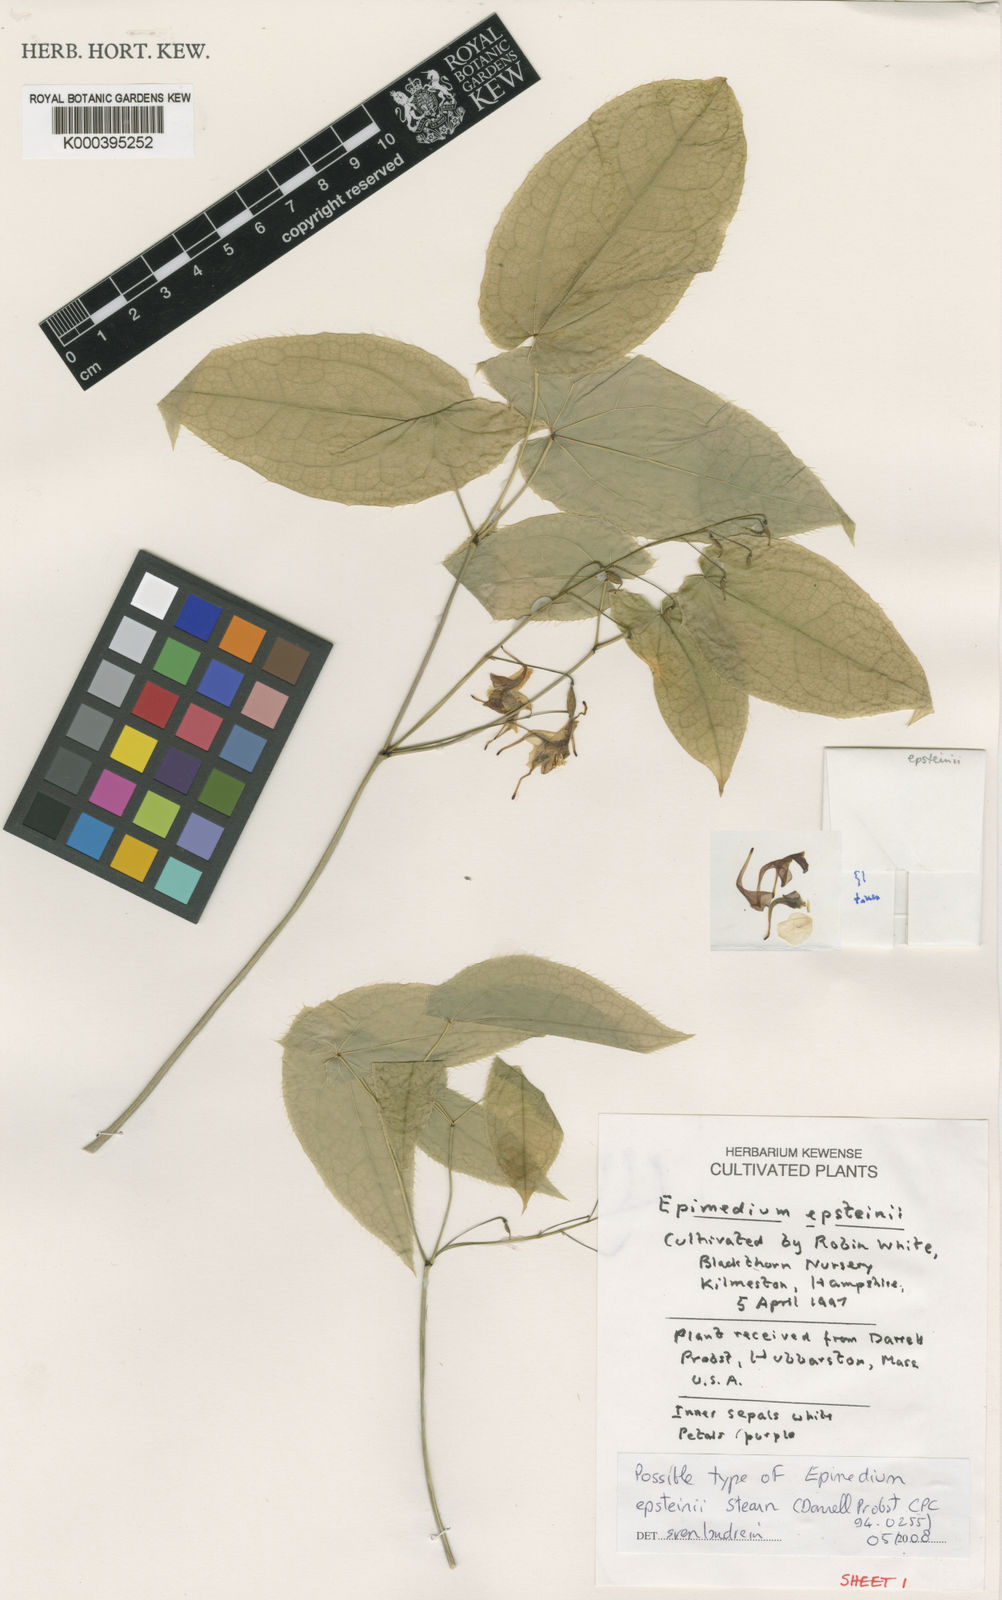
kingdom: Plantae
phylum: Tracheophyta
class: Magnoliopsida
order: Ranunculales
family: Berberidaceae
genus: Epimedium
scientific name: Epimedium epsteinii
